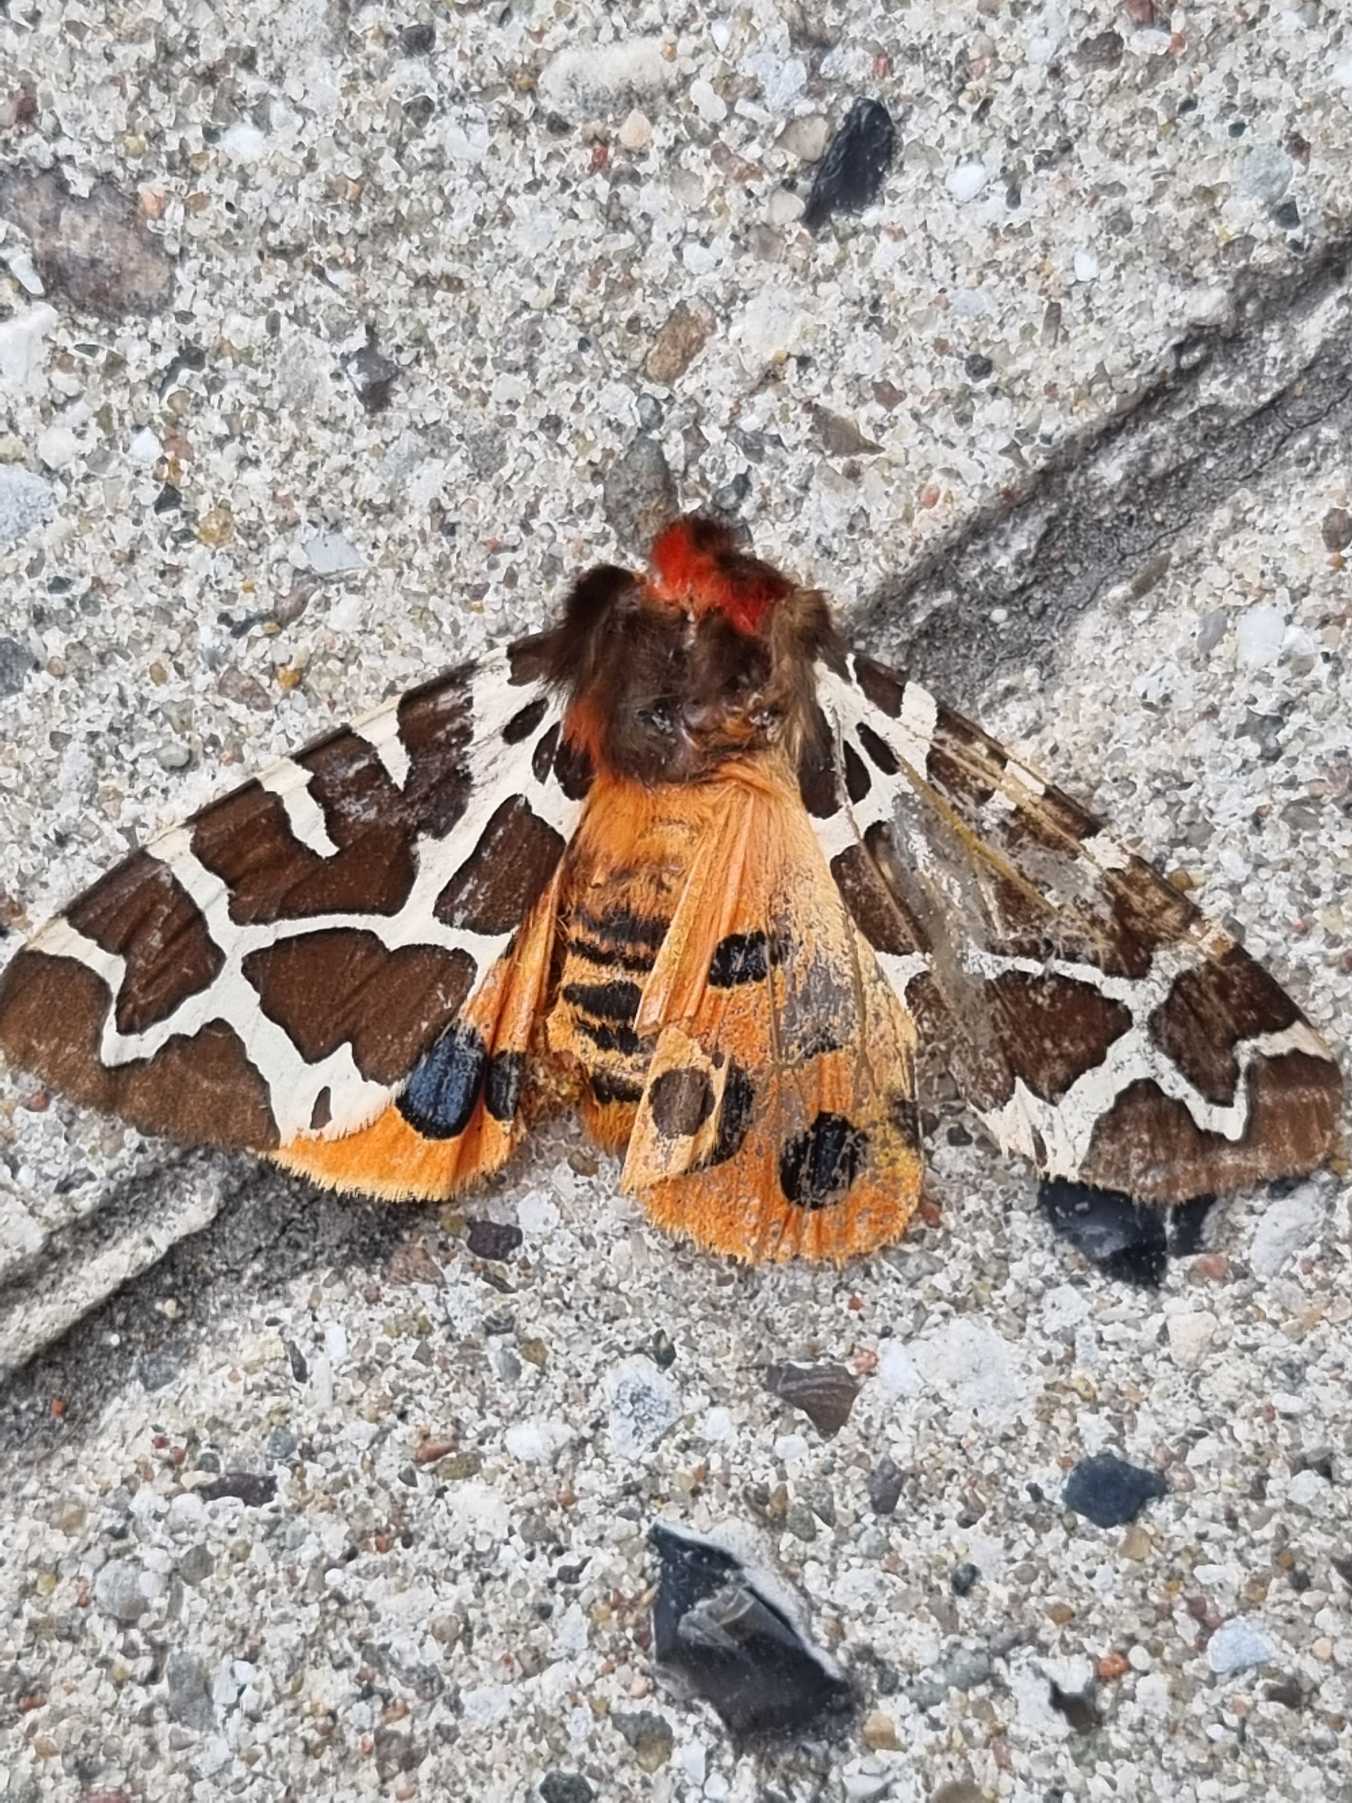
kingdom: Animalia
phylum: Arthropoda
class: Insecta
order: Lepidoptera
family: Erebidae
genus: Arctia
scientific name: Arctia caja
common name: Brun bjørn
